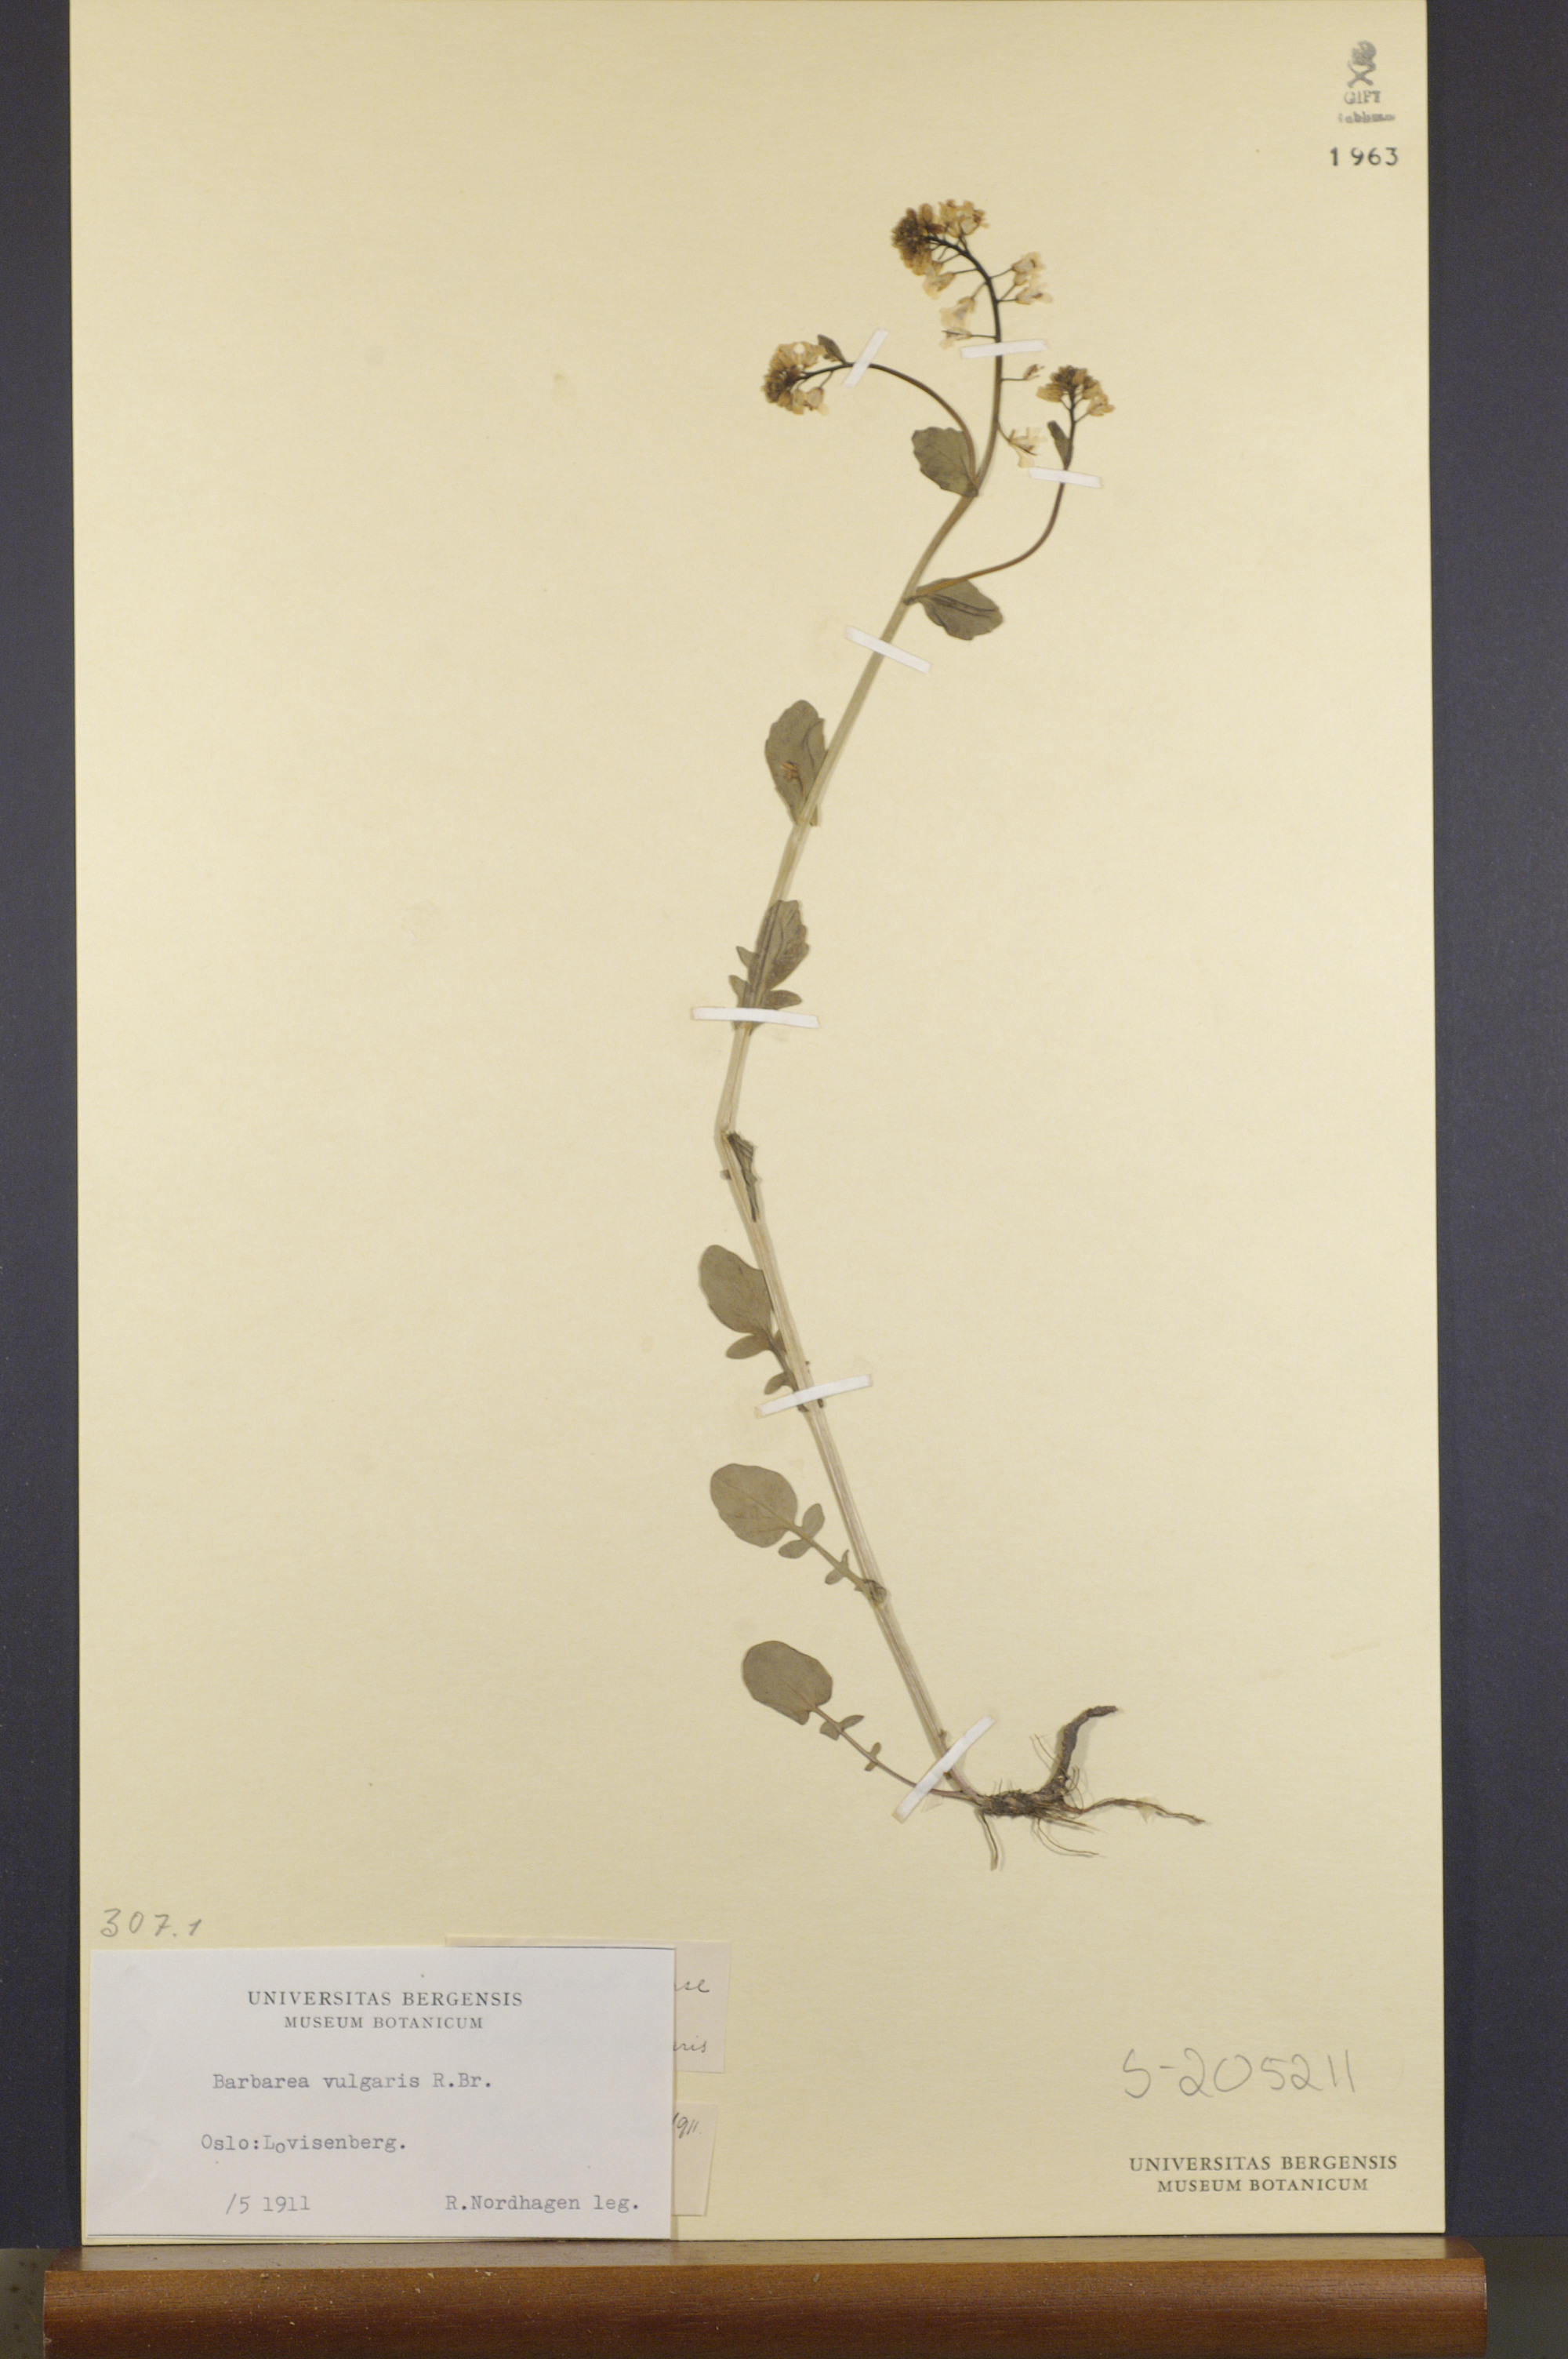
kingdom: Plantae
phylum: Tracheophyta
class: Magnoliopsida
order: Brassicales
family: Brassicaceae
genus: Barbarea
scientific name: Barbarea vulgaris
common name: Cressy-greens
